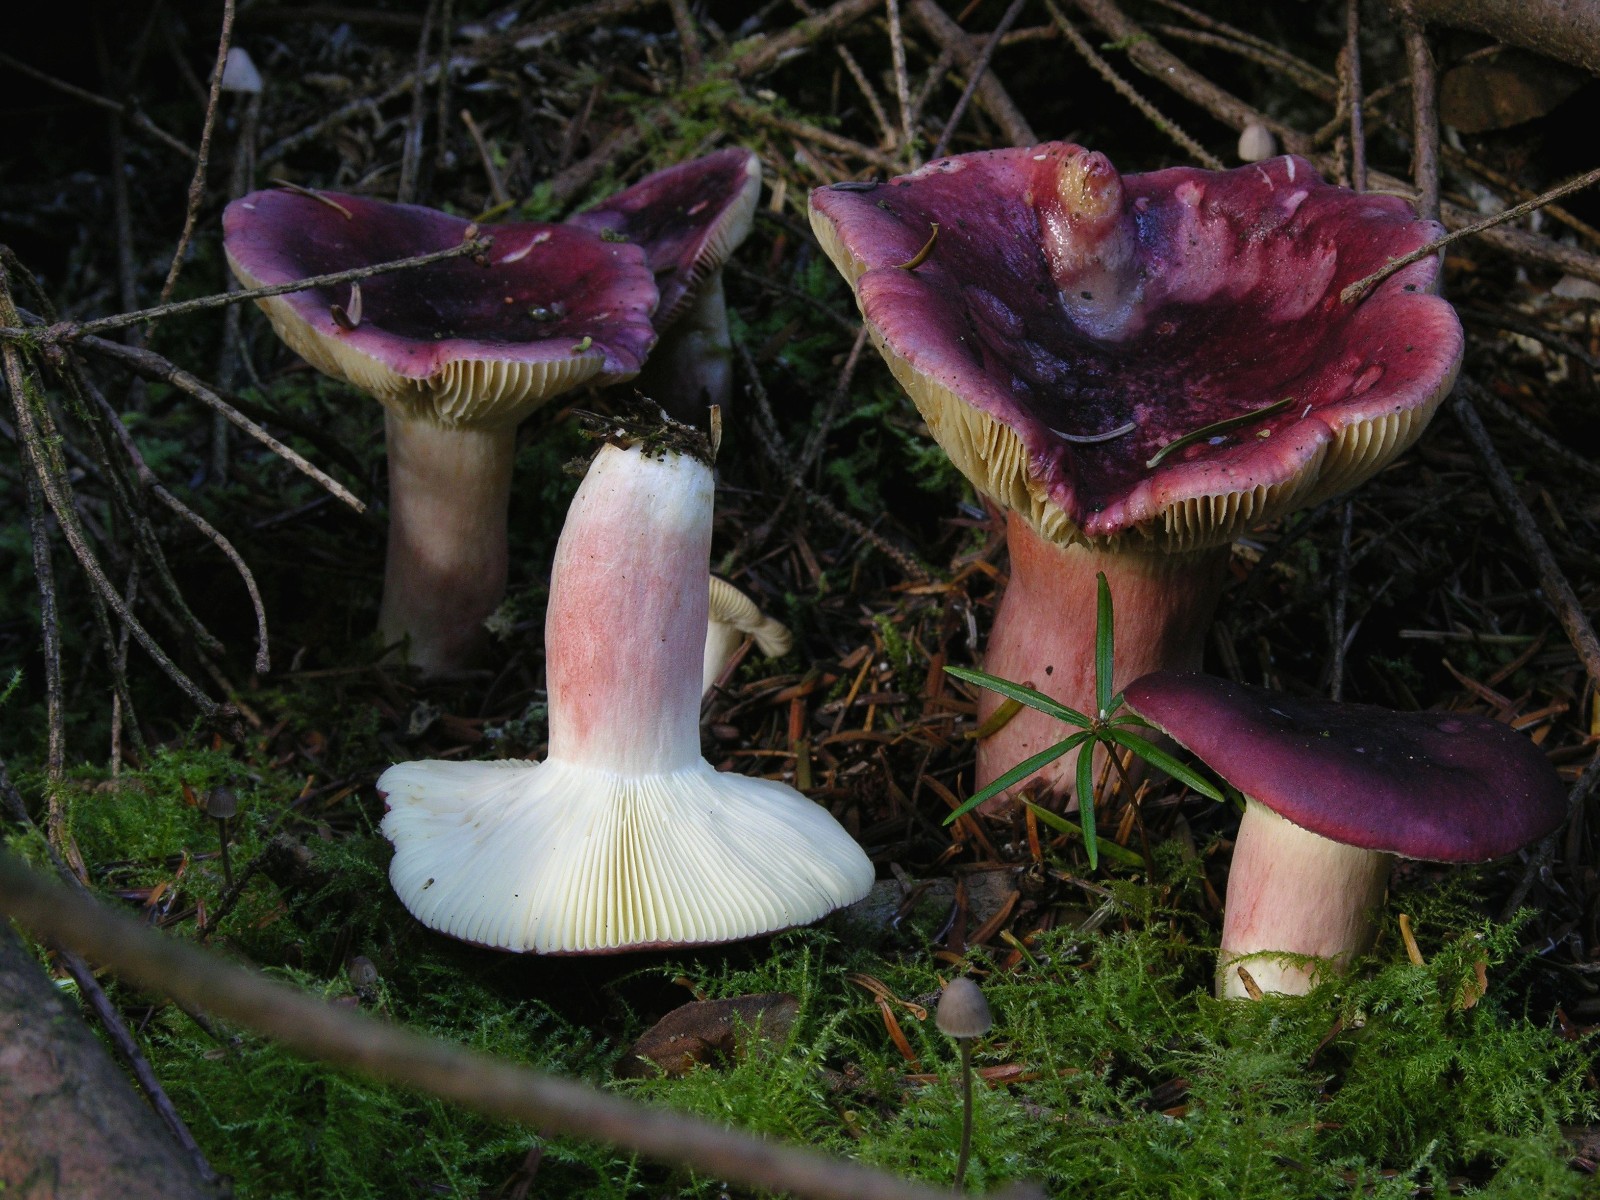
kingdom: Fungi
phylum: Basidiomycota
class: Agaricomycetes
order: Russulales
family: Russulaceae
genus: Russula
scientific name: Russula queletii
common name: Quélets skørhat
